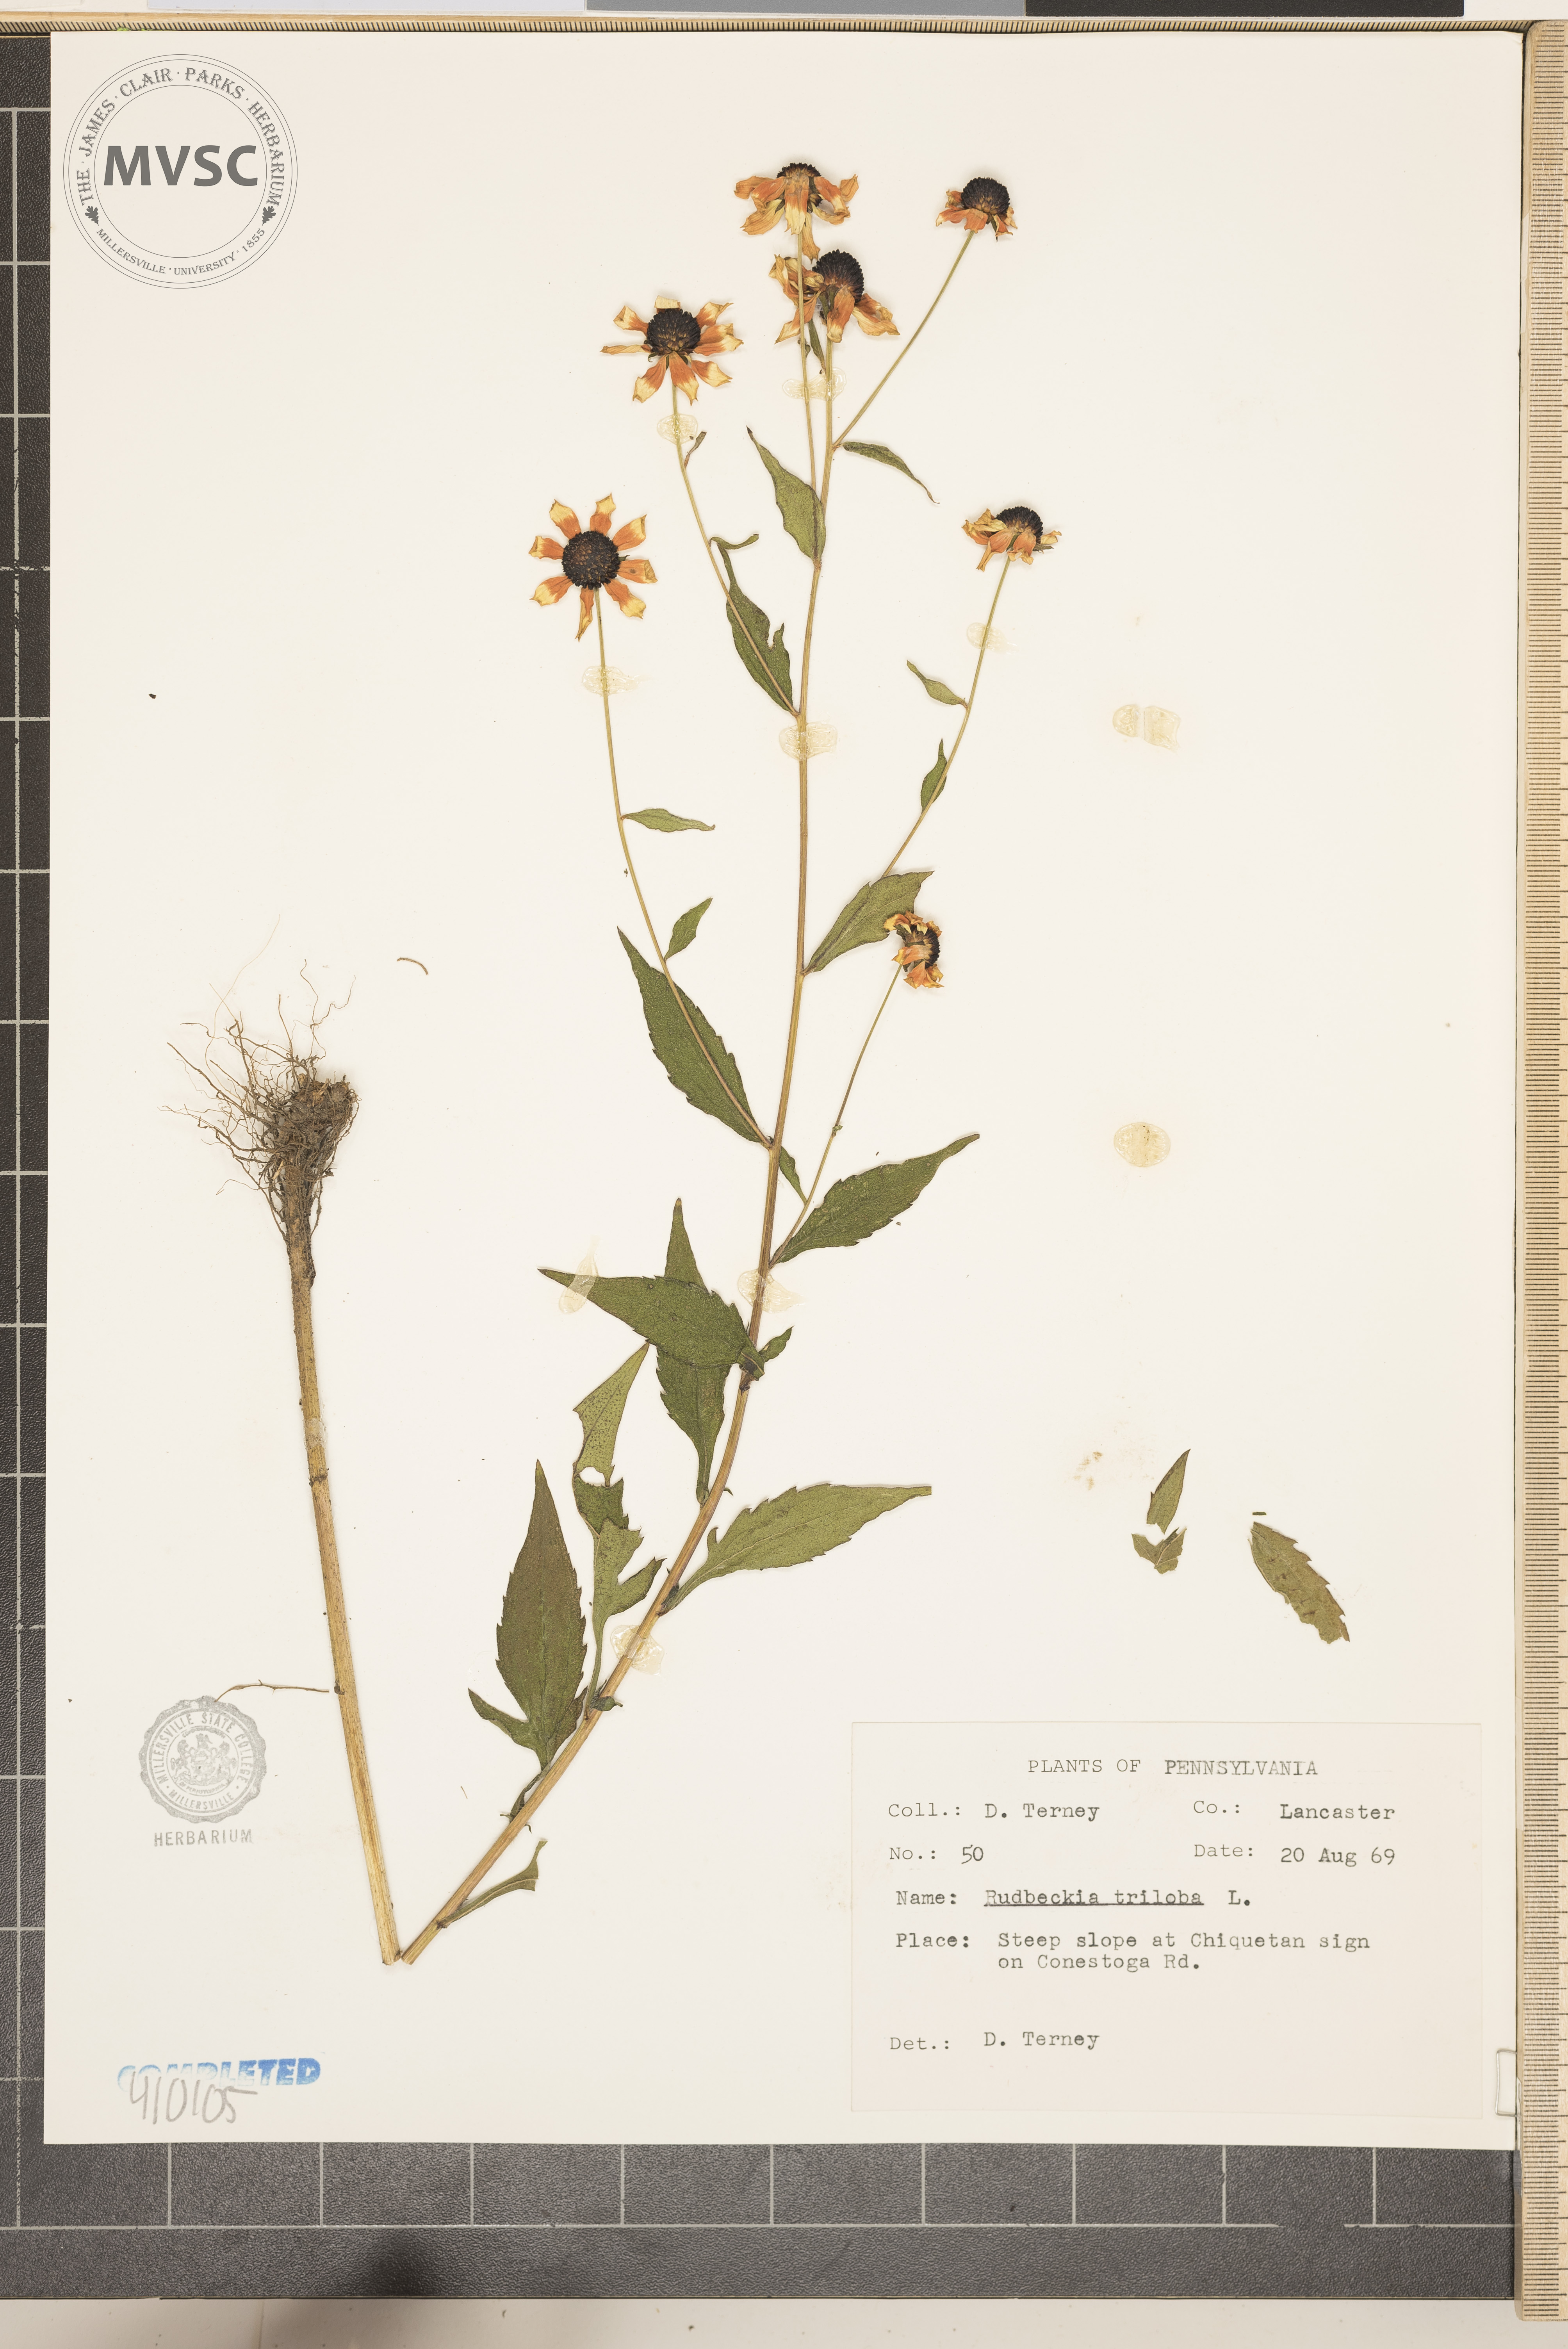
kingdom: Plantae
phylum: Tracheophyta
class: Magnoliopsida
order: Asterales
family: Asteraceae
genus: Rudbeckia
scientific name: Rudbeckia triloba
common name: Thin-leaved coneflower
